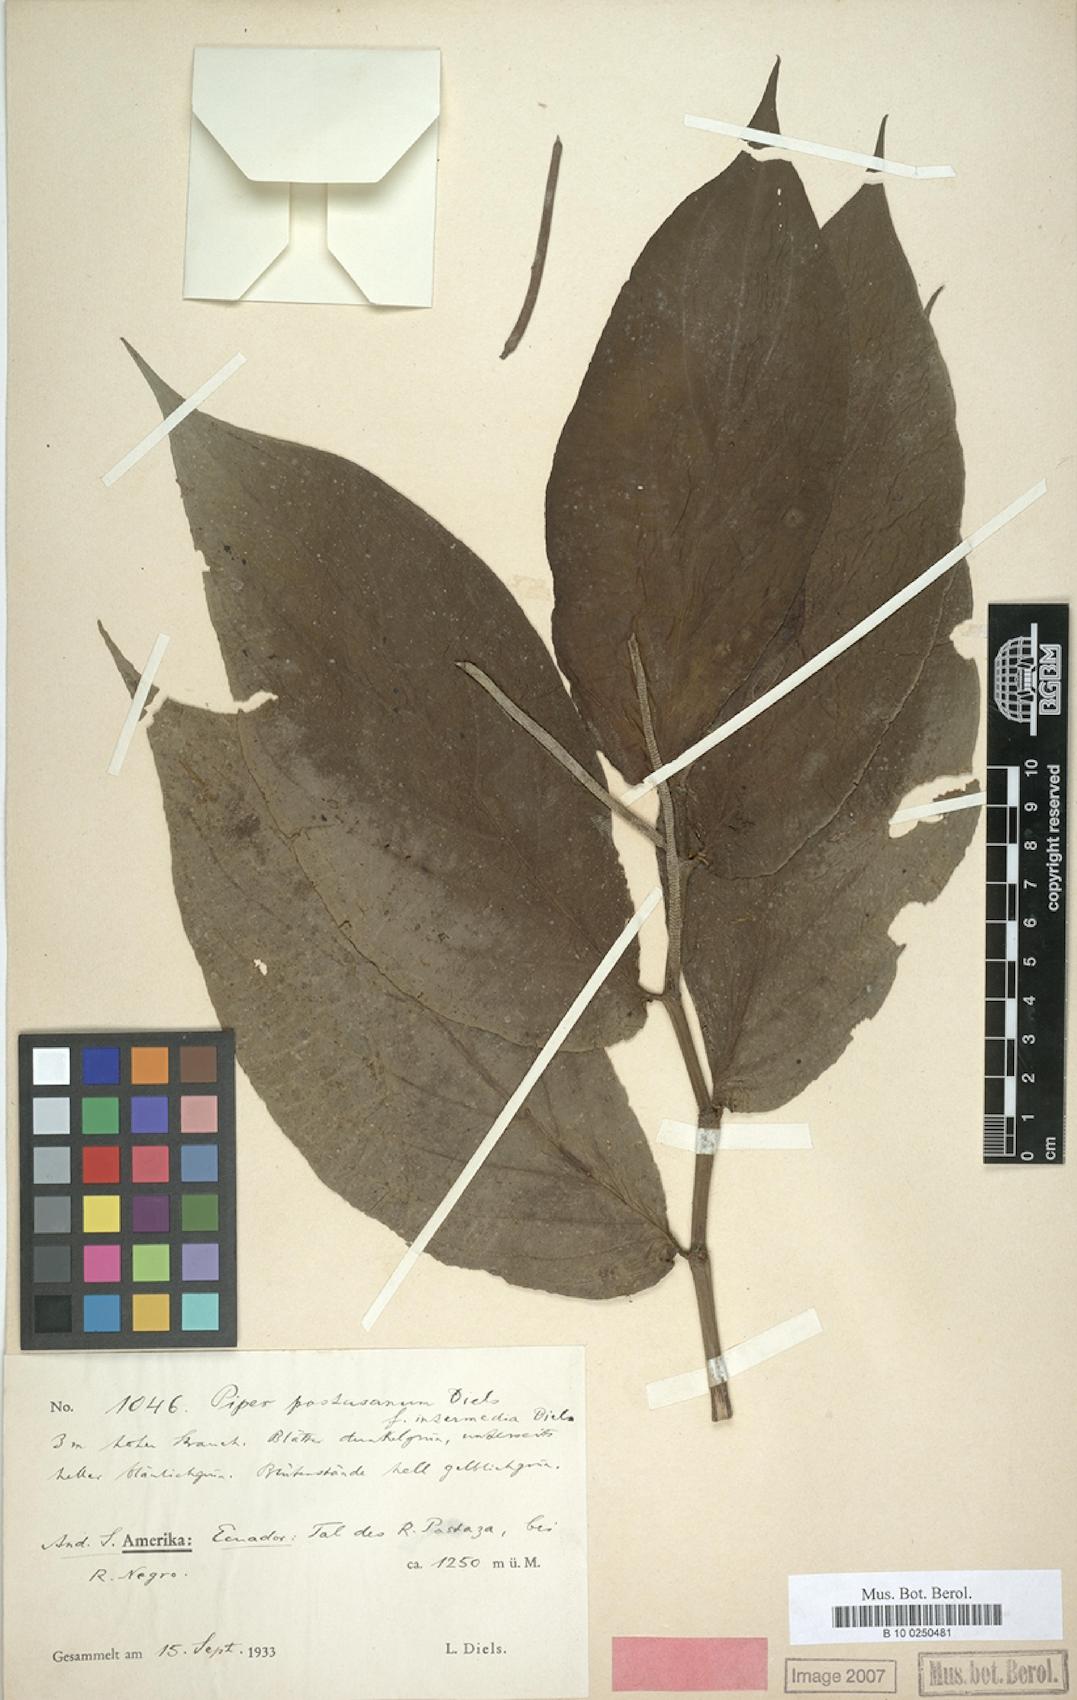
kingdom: Plantae
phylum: Tracheophyta
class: Magnoliopsida
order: Piperales
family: Piperaceae
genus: Piper
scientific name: Piper pastasanum
